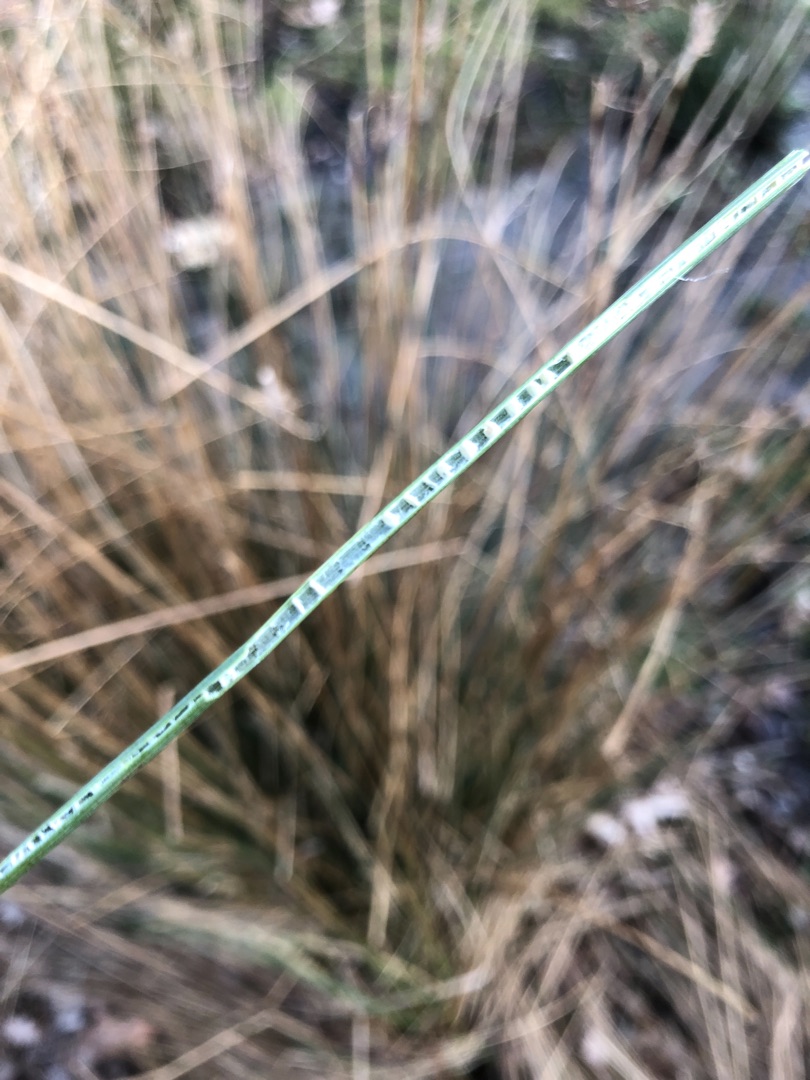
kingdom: Plantae
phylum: Tracheophyta
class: Liliopsida
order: Poales
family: Juncaceae
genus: Juncus
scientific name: Juncus inflexus
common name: Blågrå siv
